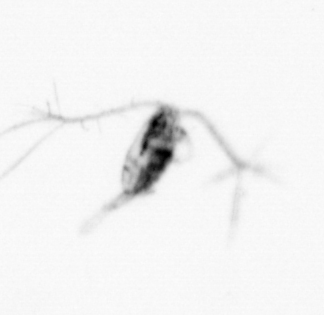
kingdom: Animalia
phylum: Arthropoda
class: Copepoda
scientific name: Copepoda
